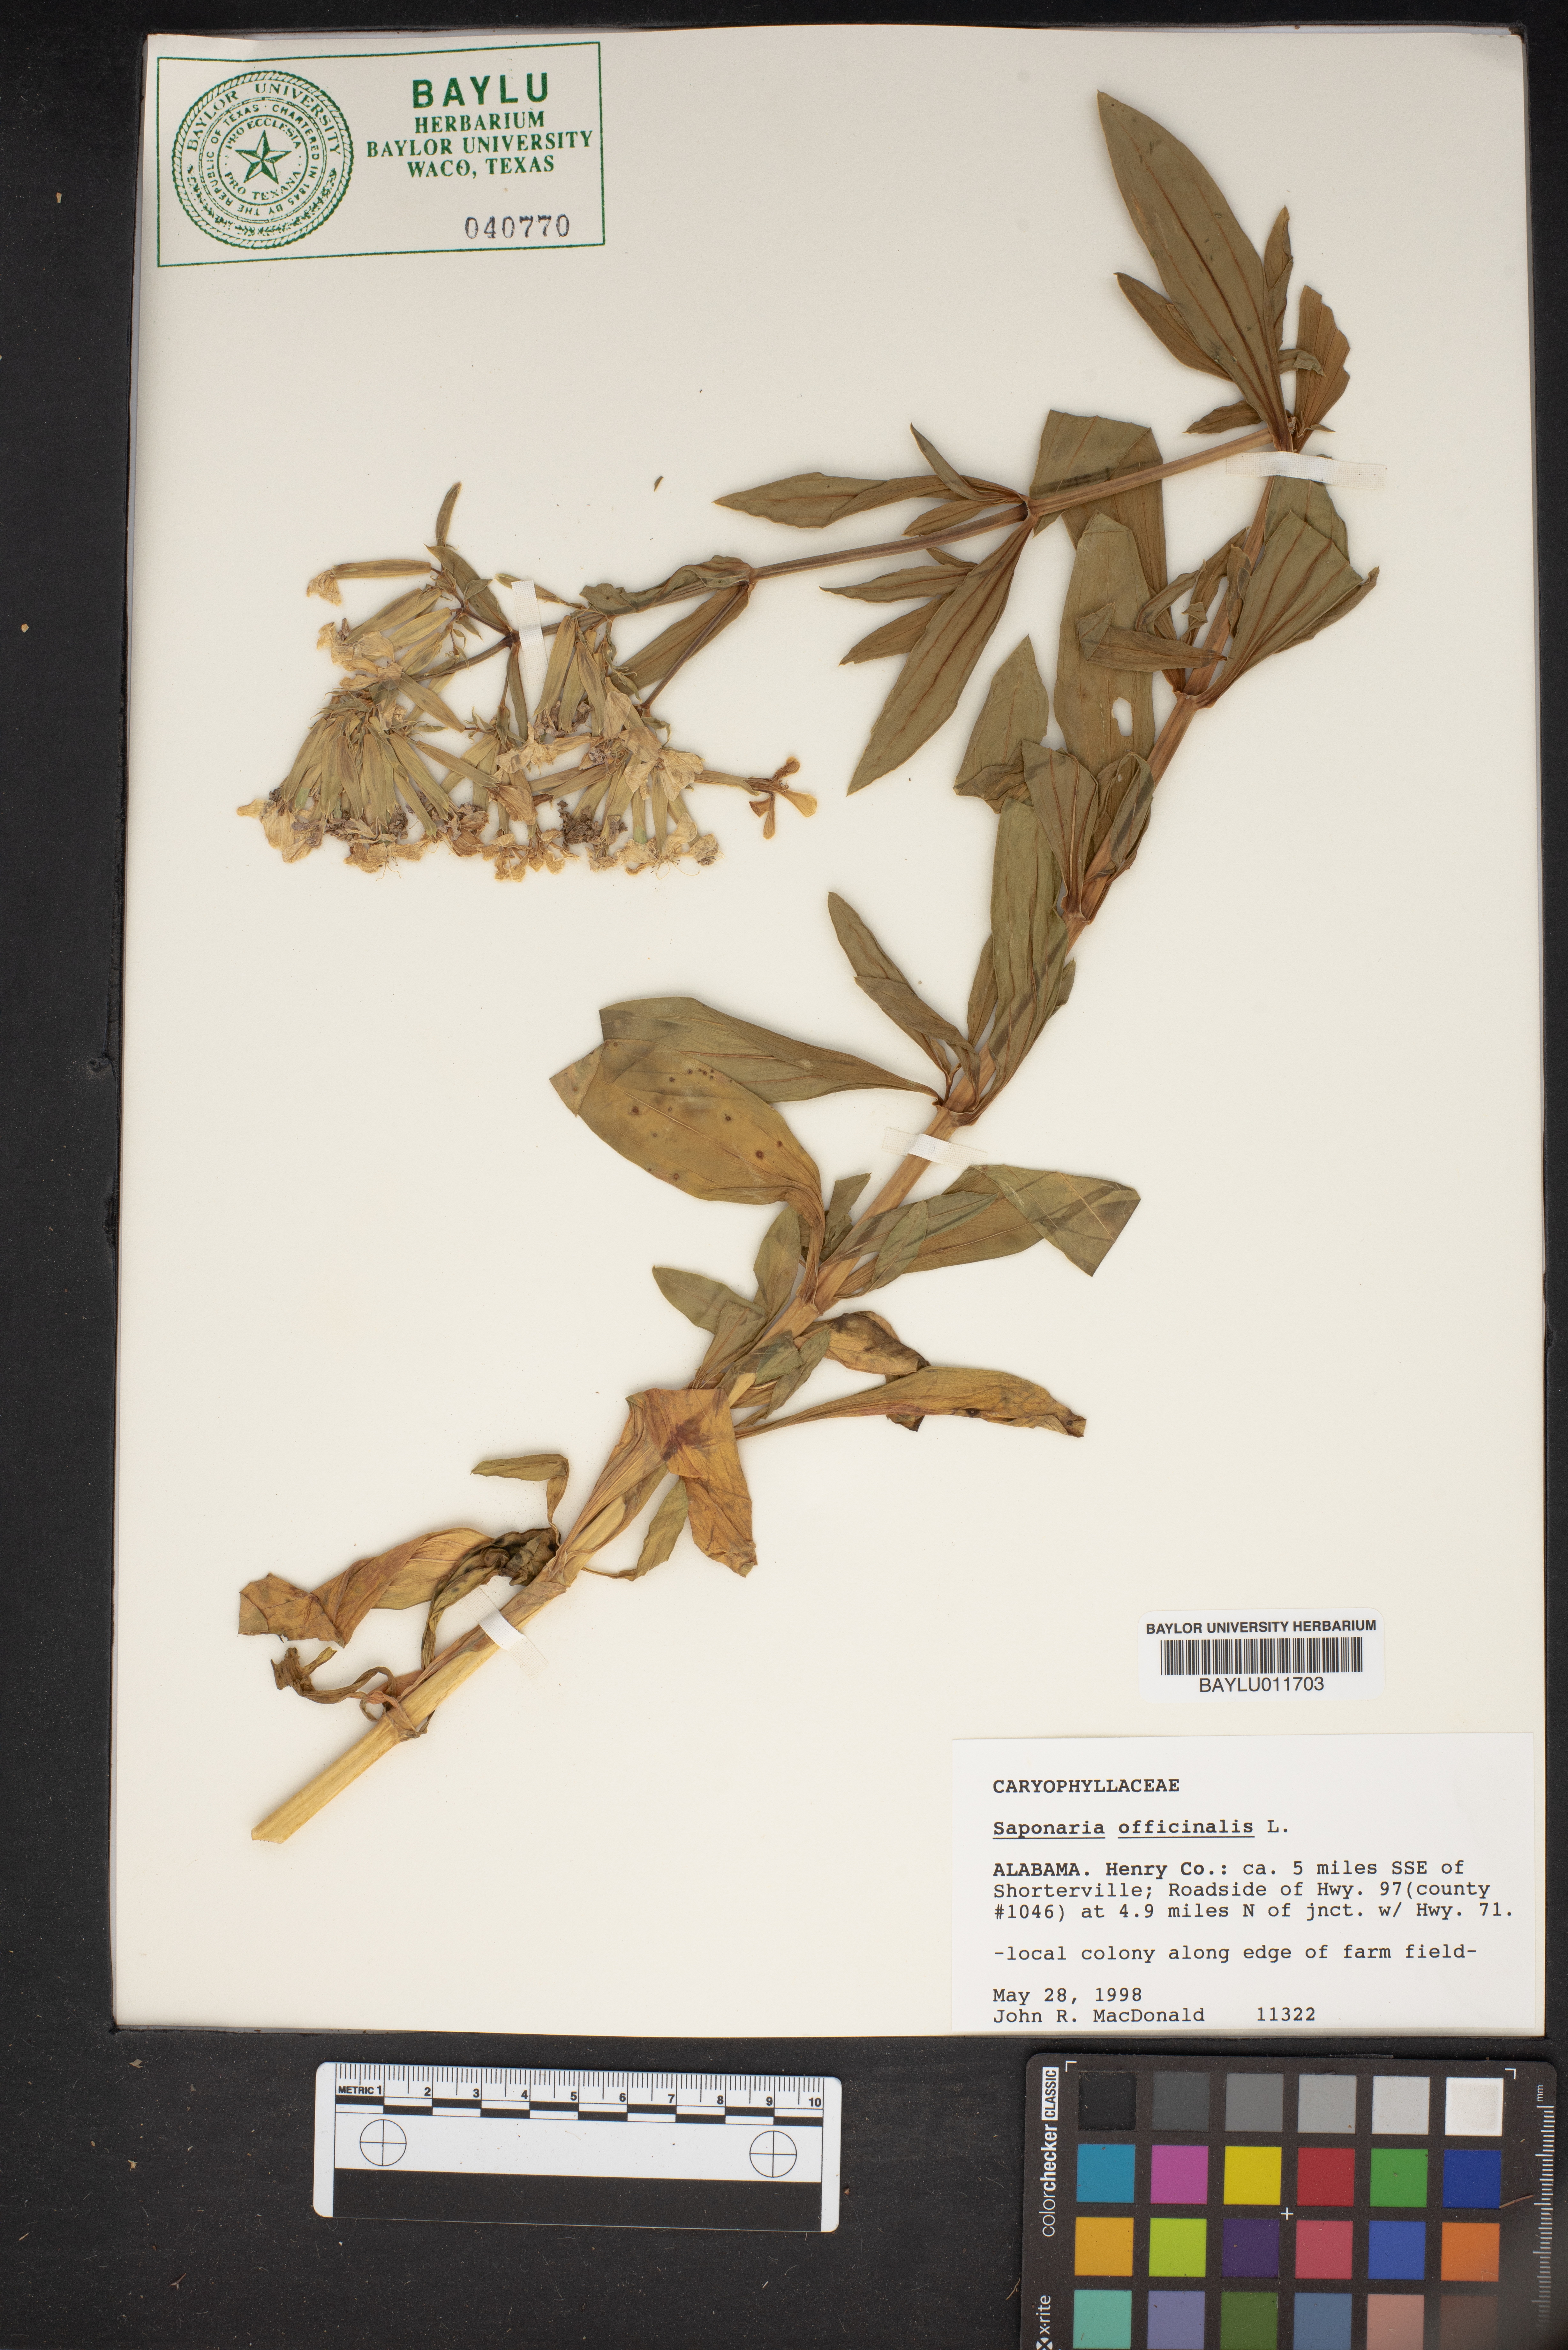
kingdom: Plantae
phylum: Tracheophyta
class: Magnoliopsida
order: Caryophyllales
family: Caryophyllaceae
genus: Saponaria
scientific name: Saponaria officinalis
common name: Soapwort
